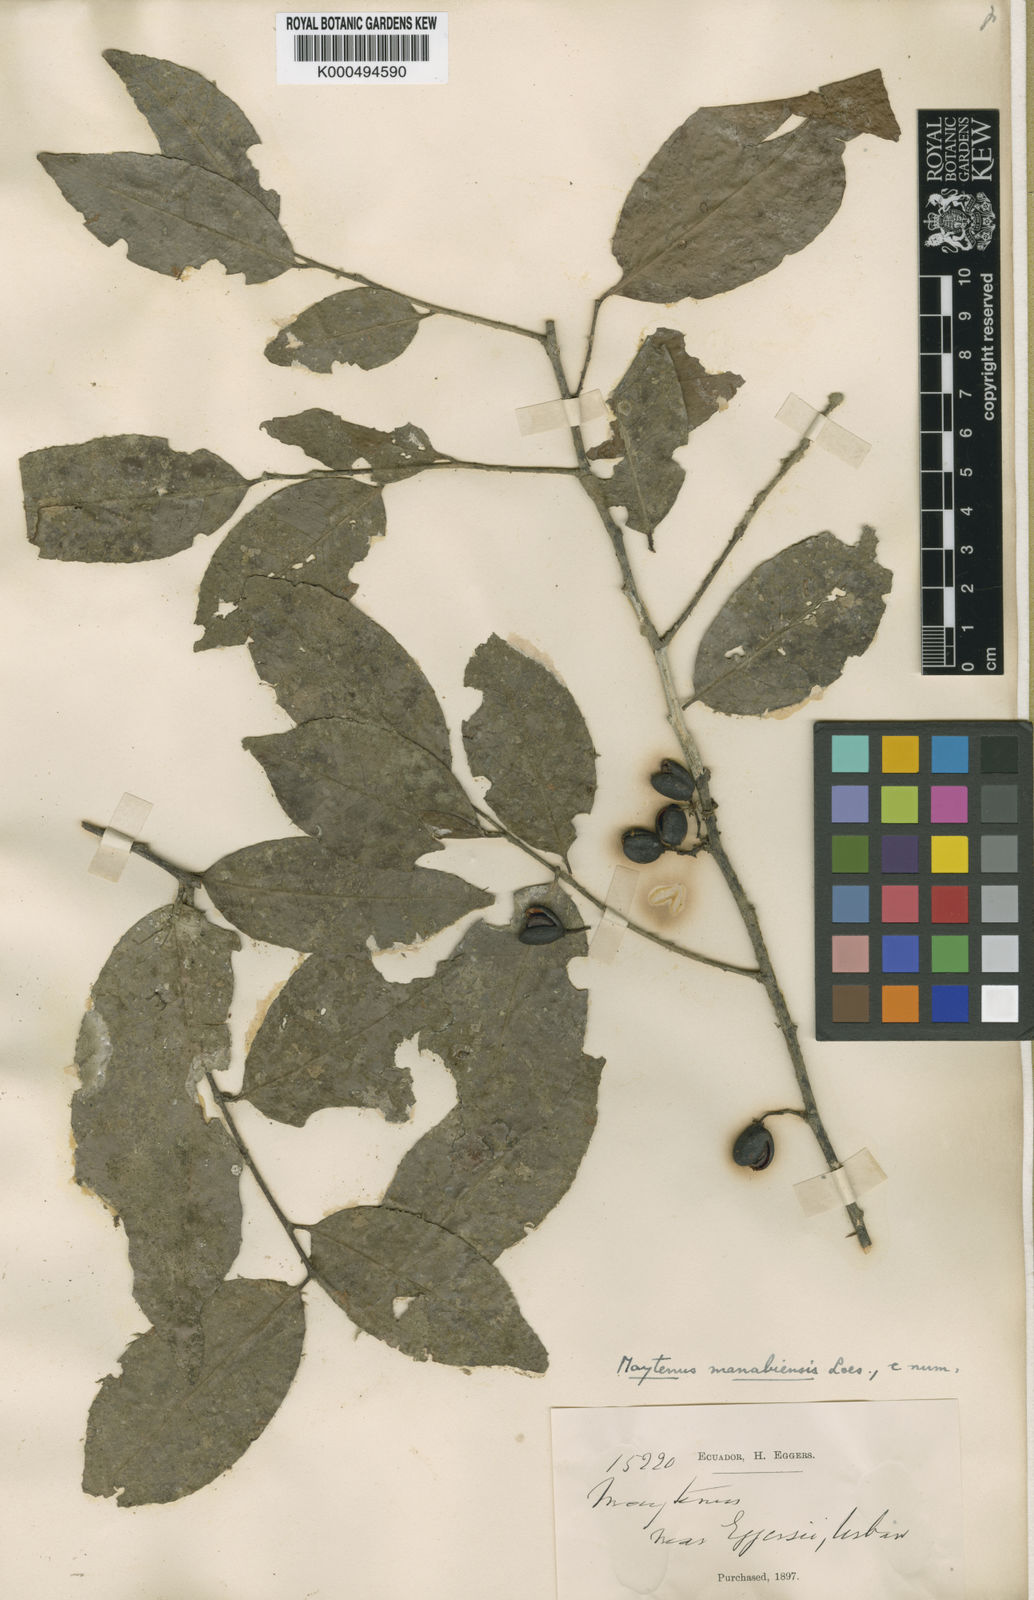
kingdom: Plantae
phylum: Tracheophyta
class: Magnoliopsida
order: Celastrales
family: Celastraceae
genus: Monteverdia
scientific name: Monteverdia manabiensis
